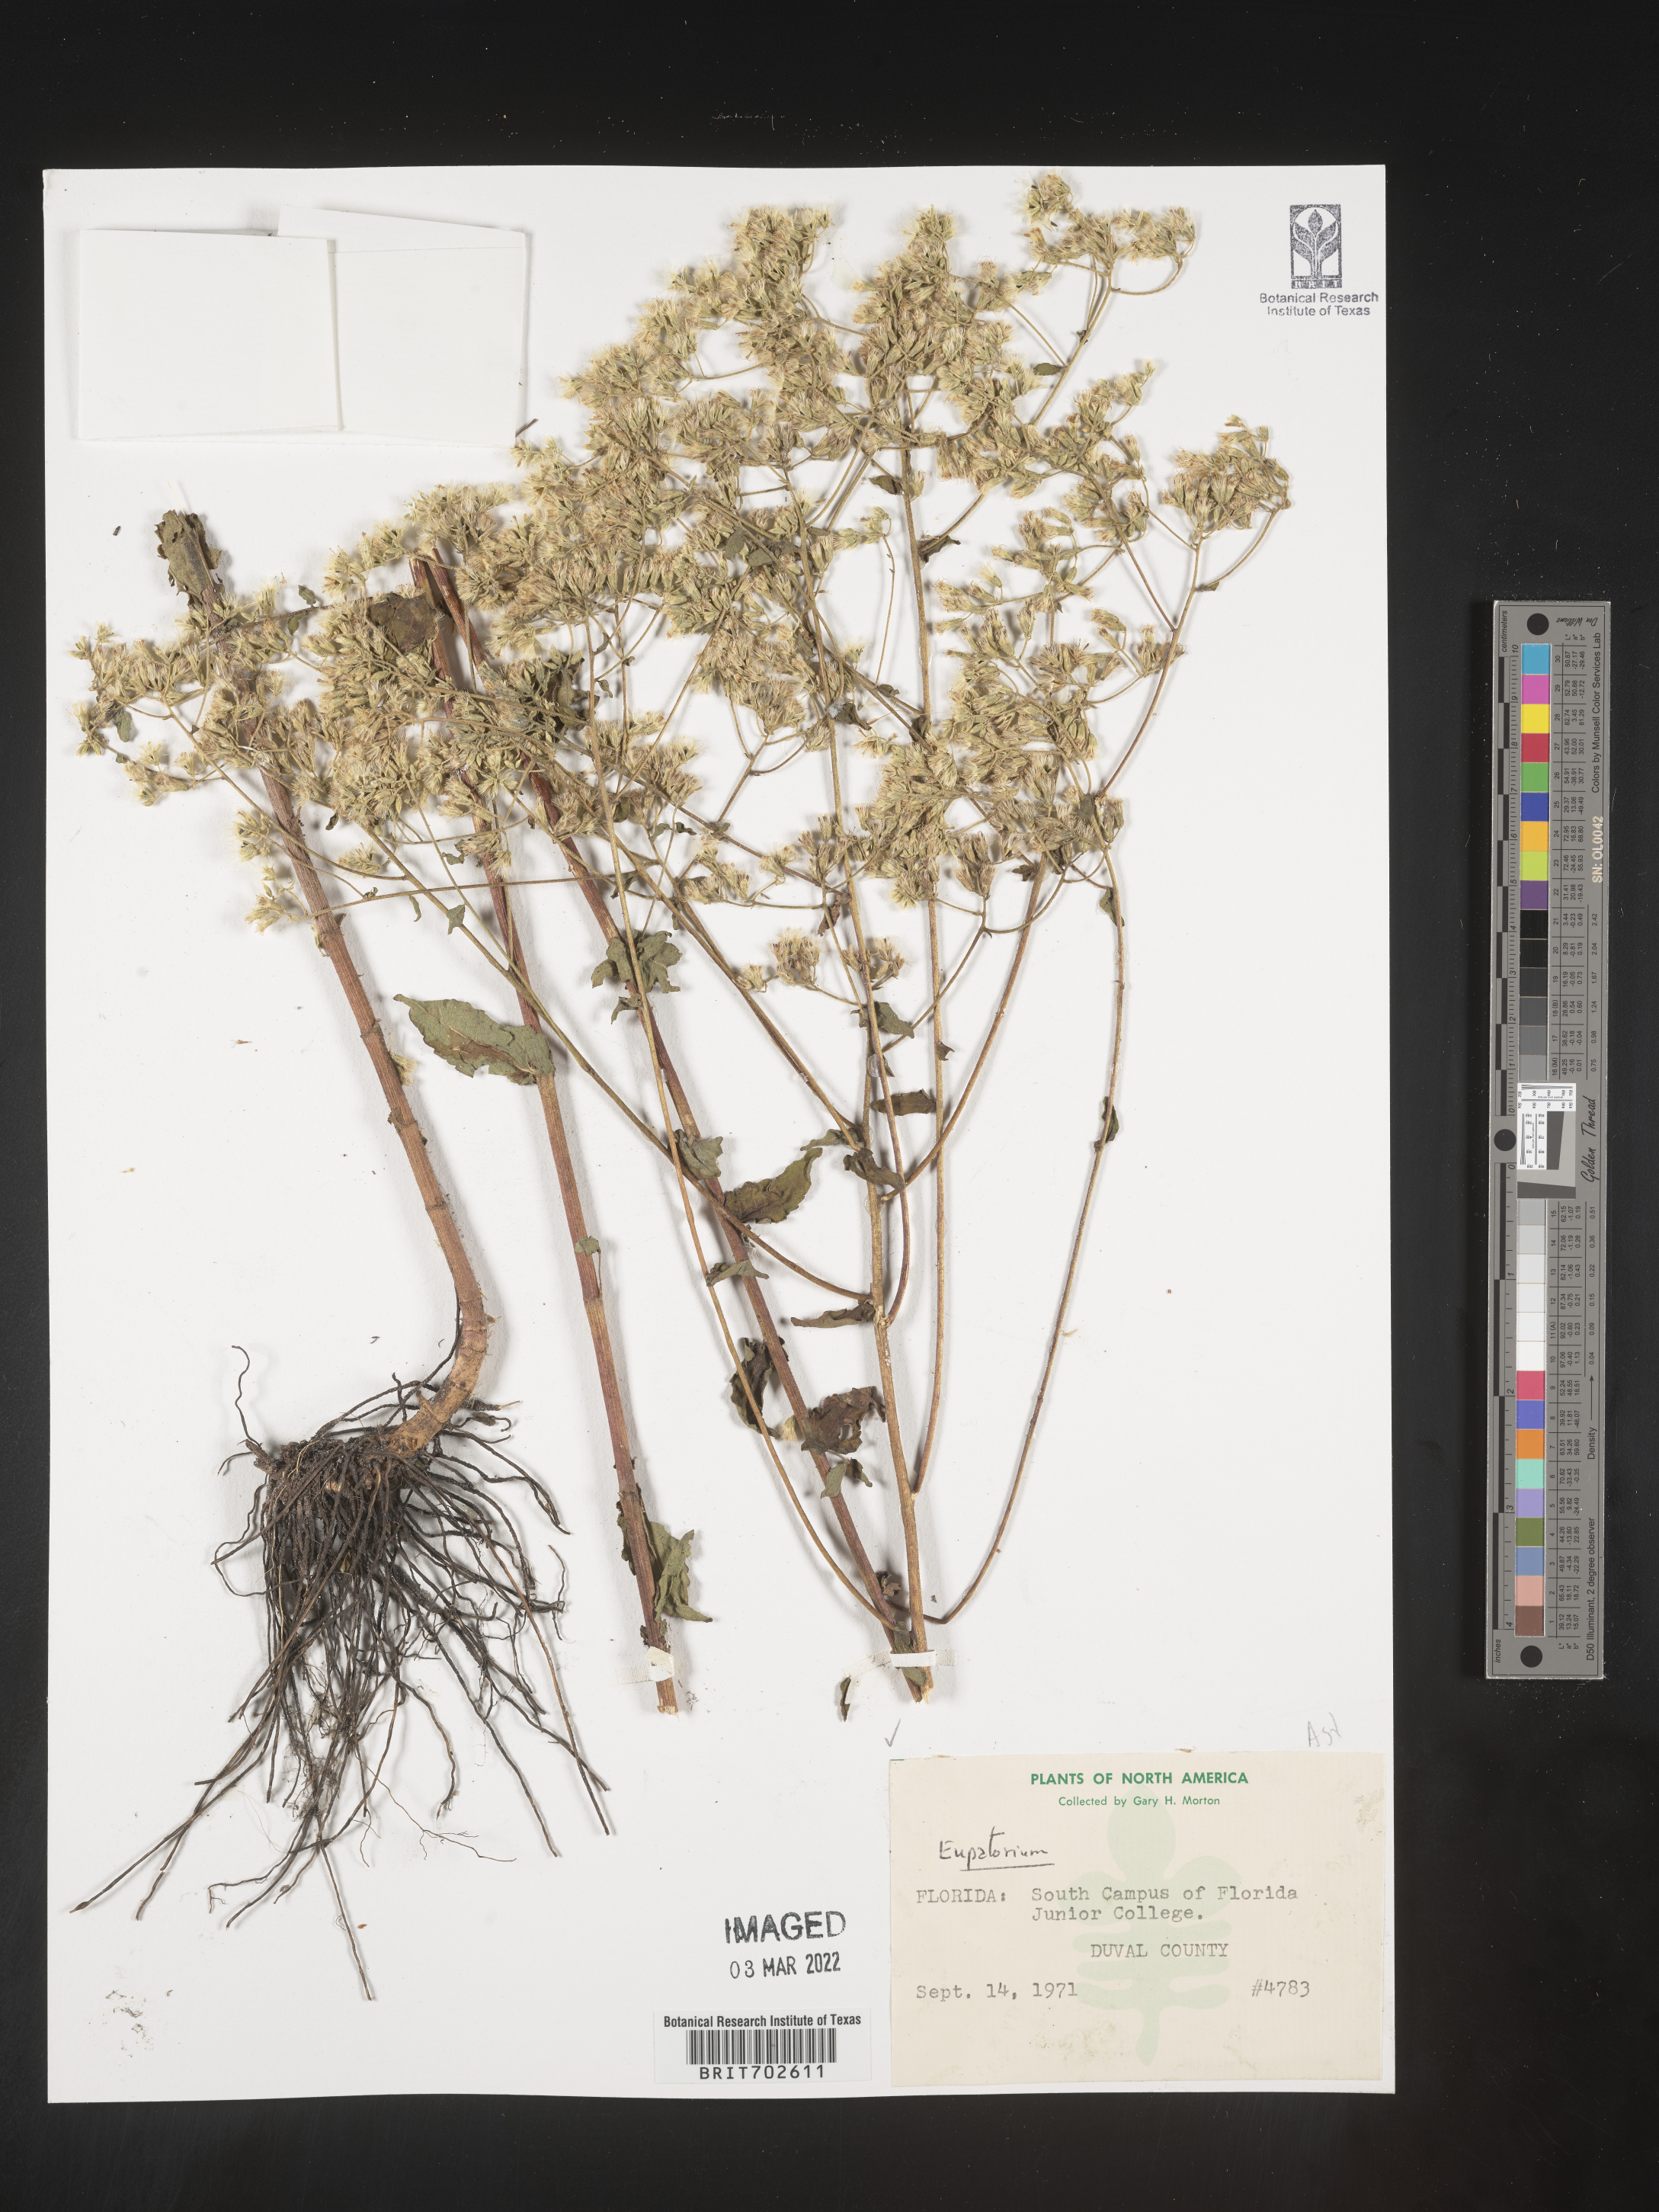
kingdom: Plantae
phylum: Tracheophyta
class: Magnoliopsida
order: Asterales
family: Asteraceae
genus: Eupatorium
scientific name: Eupatorium
